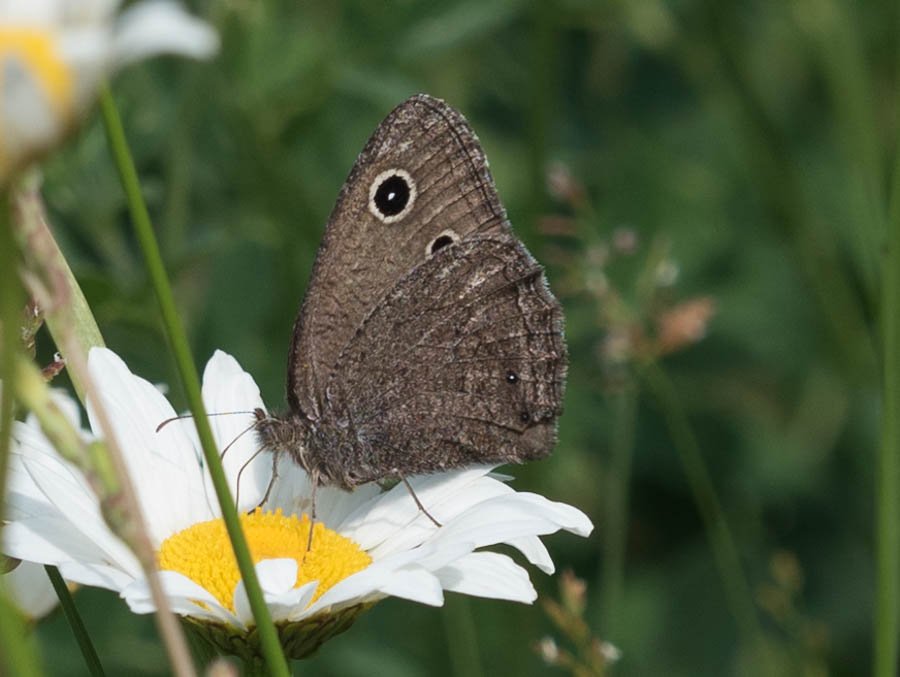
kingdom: Animalia
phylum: Arthropoda
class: Insecta
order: Lepidoptera
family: Nymphalidae
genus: Cercyonis
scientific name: Cercyonis oetus
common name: Small Wood-Nymph
